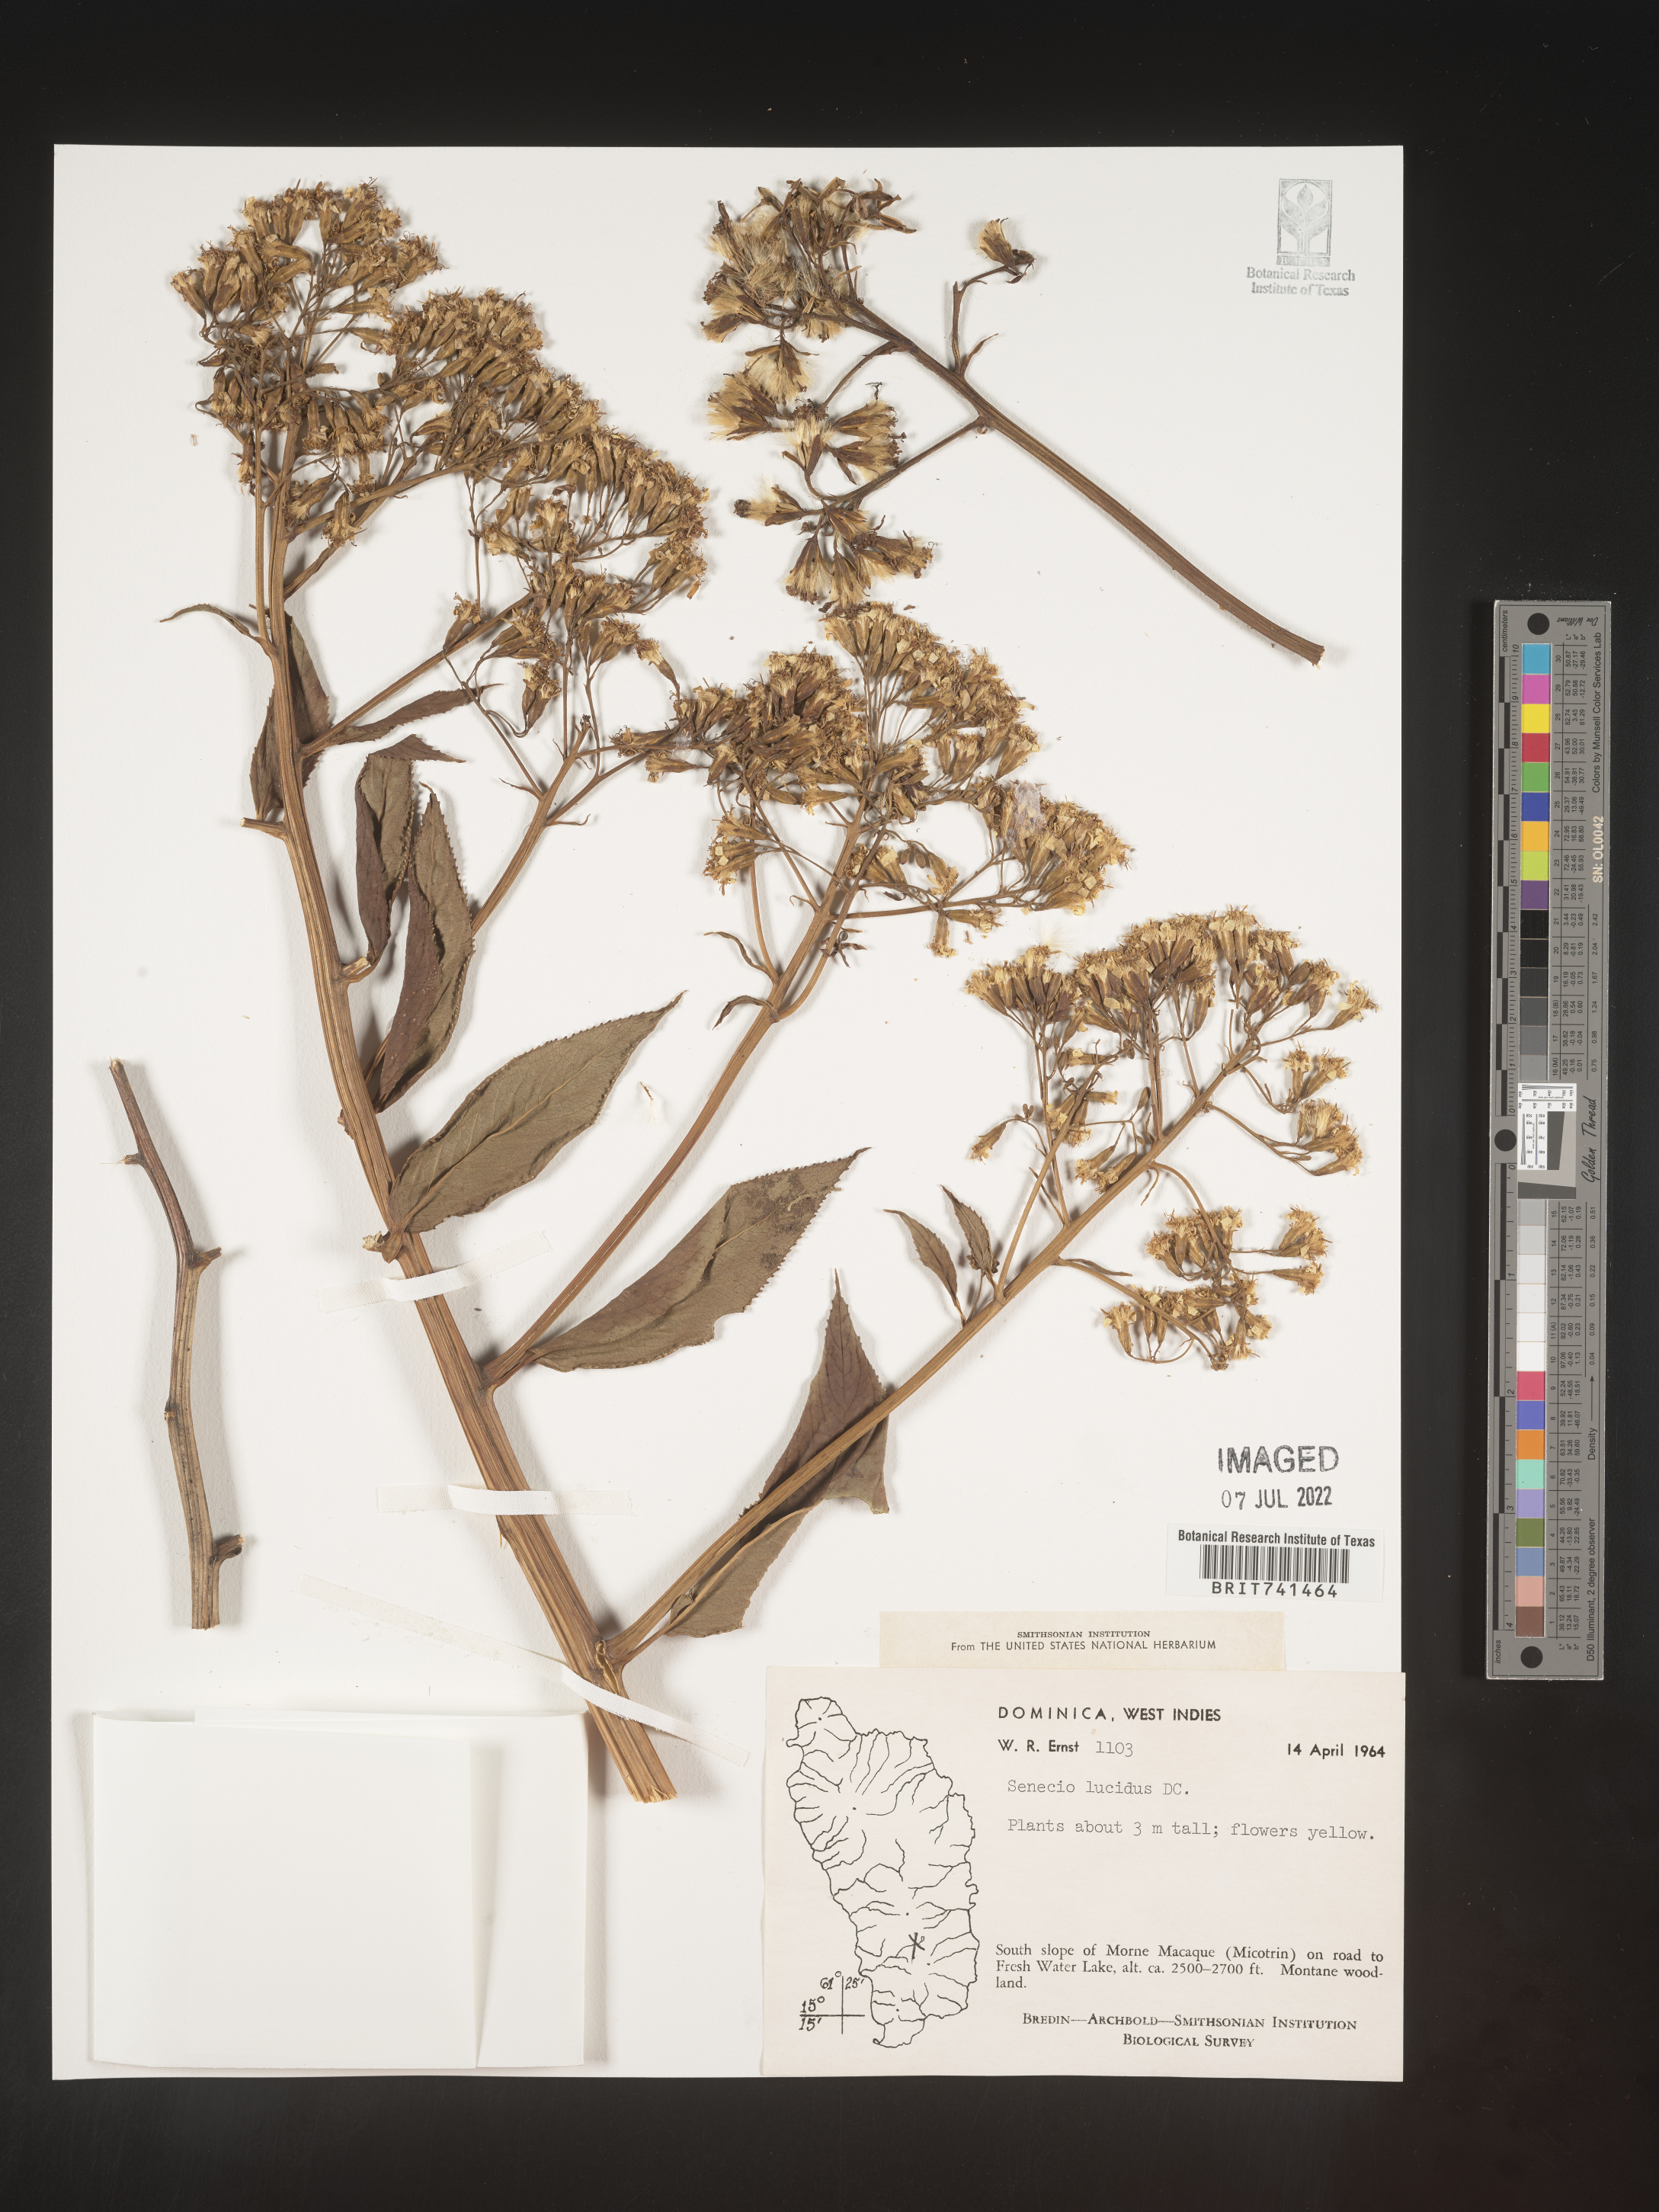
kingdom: Plantae
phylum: Tracheophyta
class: Magnoliopsida
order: Asterales
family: Asteraceae
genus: Senecio
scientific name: Senecio
